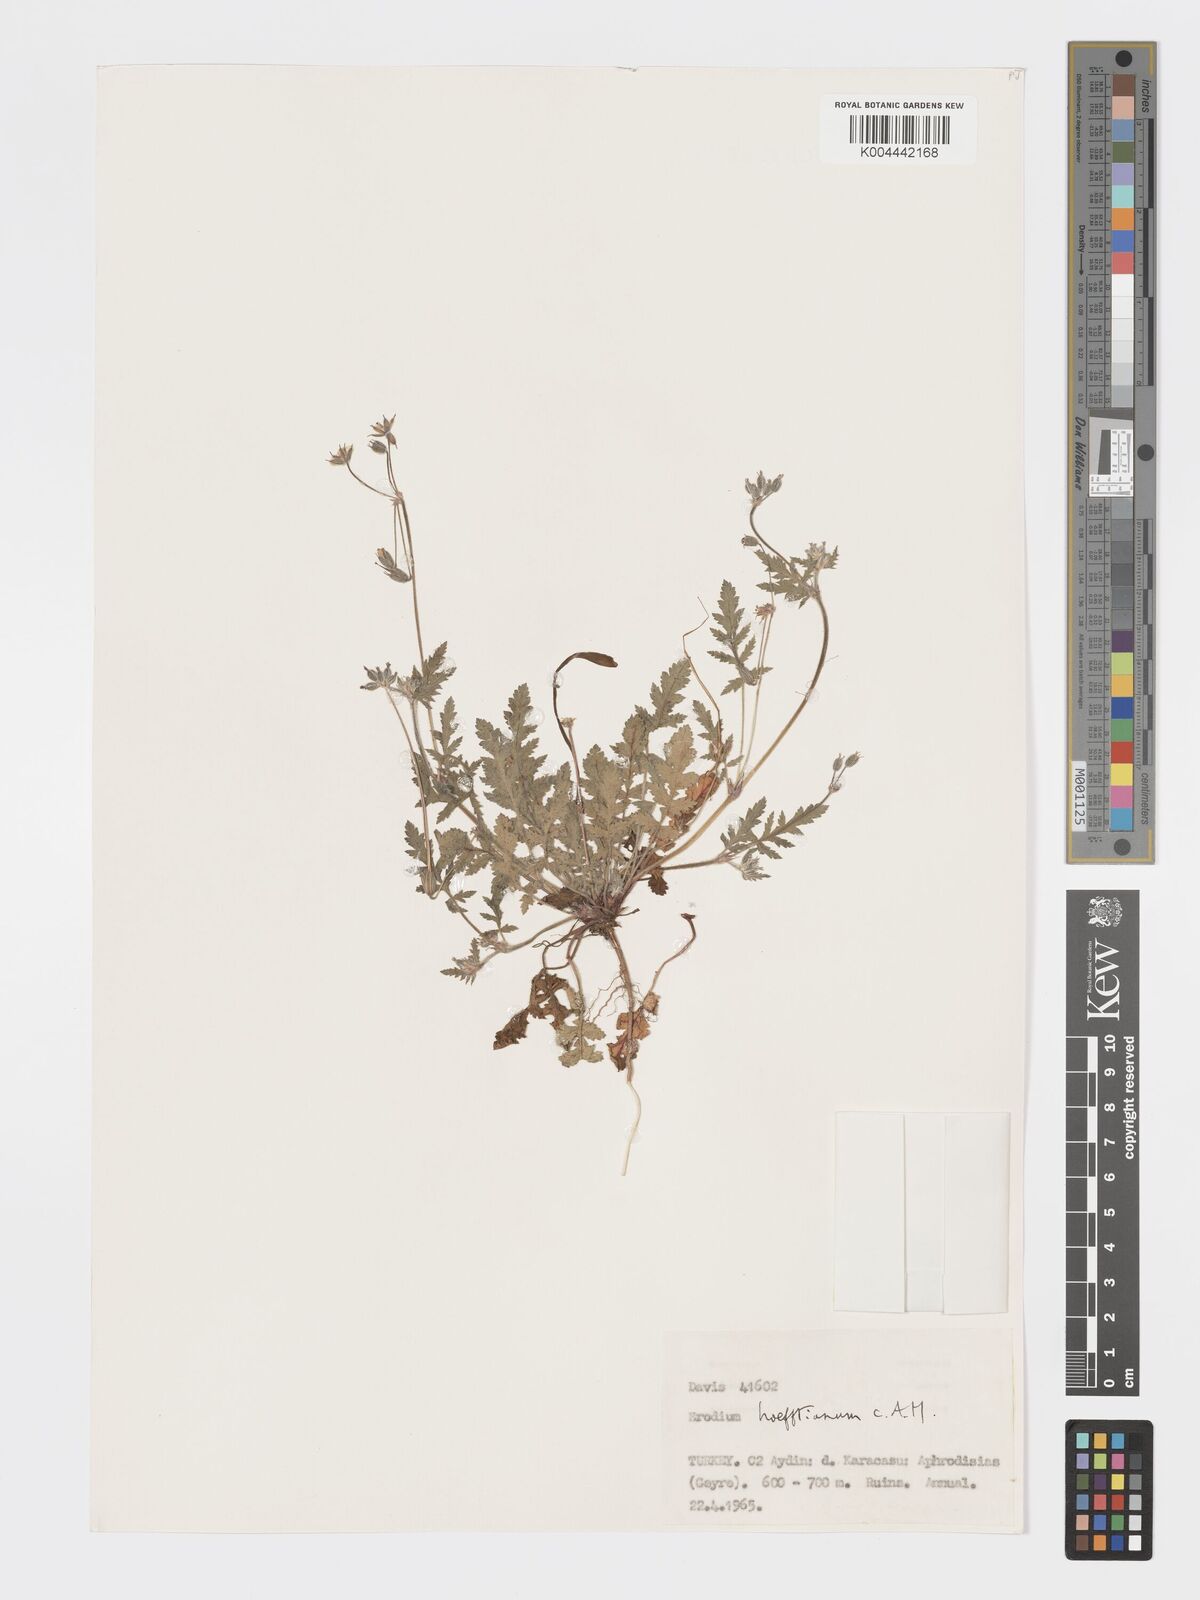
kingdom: Plantae
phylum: Tracheophyta
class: Magnoliopsida
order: Geraniales
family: Geraniaceae
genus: Erodium
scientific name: Erodium hoefftianum
